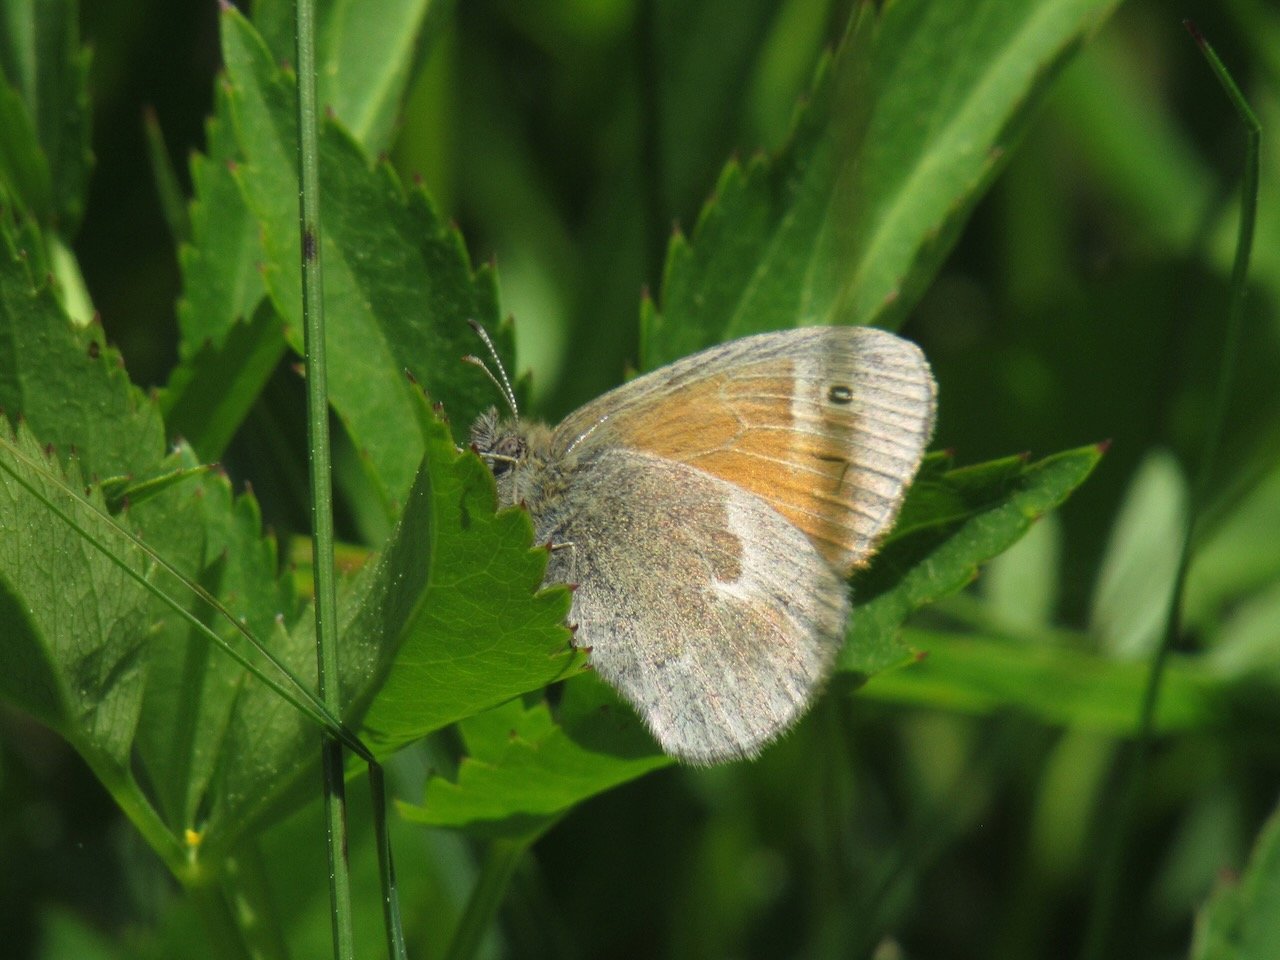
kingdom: Animalia
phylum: Arthropoda
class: Insecta
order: Lepidoptera
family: Nymphalidae
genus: Coenonympha
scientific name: Coenonympha tullia
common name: Large Heath
